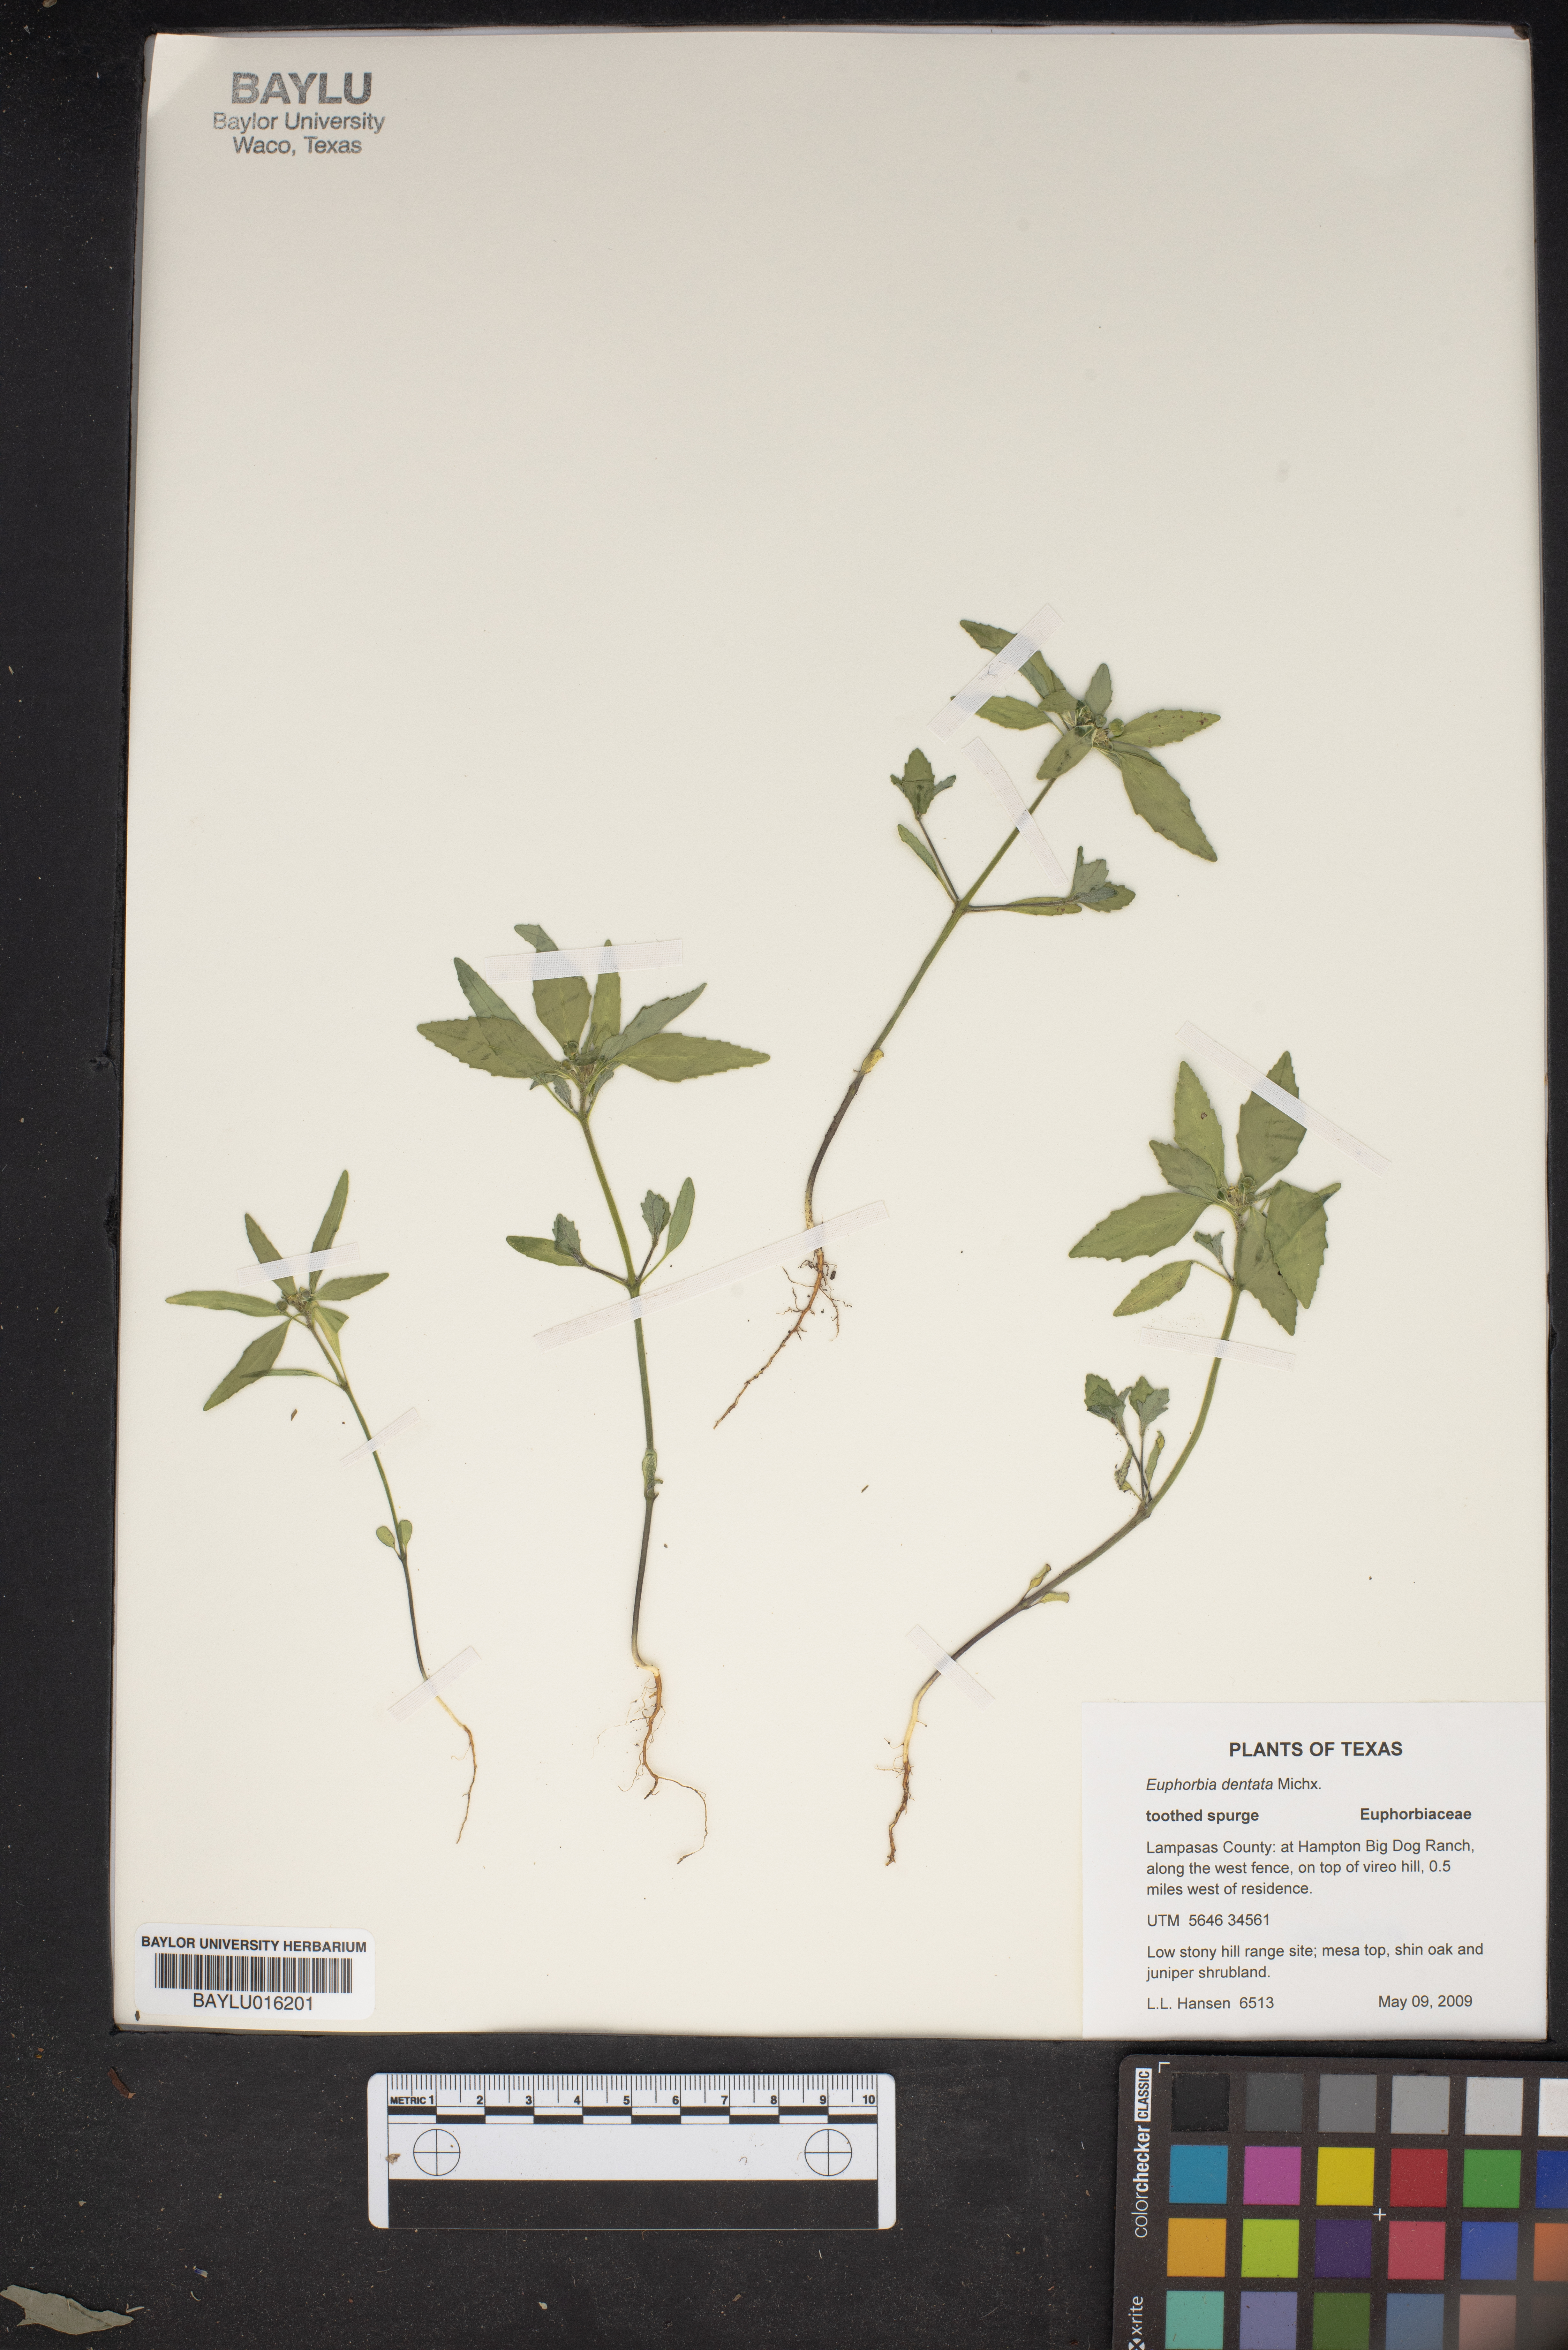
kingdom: Plantae
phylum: Tracheophyta
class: Magnoliopsida
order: Malpighiales
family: Euphorbiaceae
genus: Euphorbia
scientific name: Euphorbia dentata
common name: Dentate spurge
